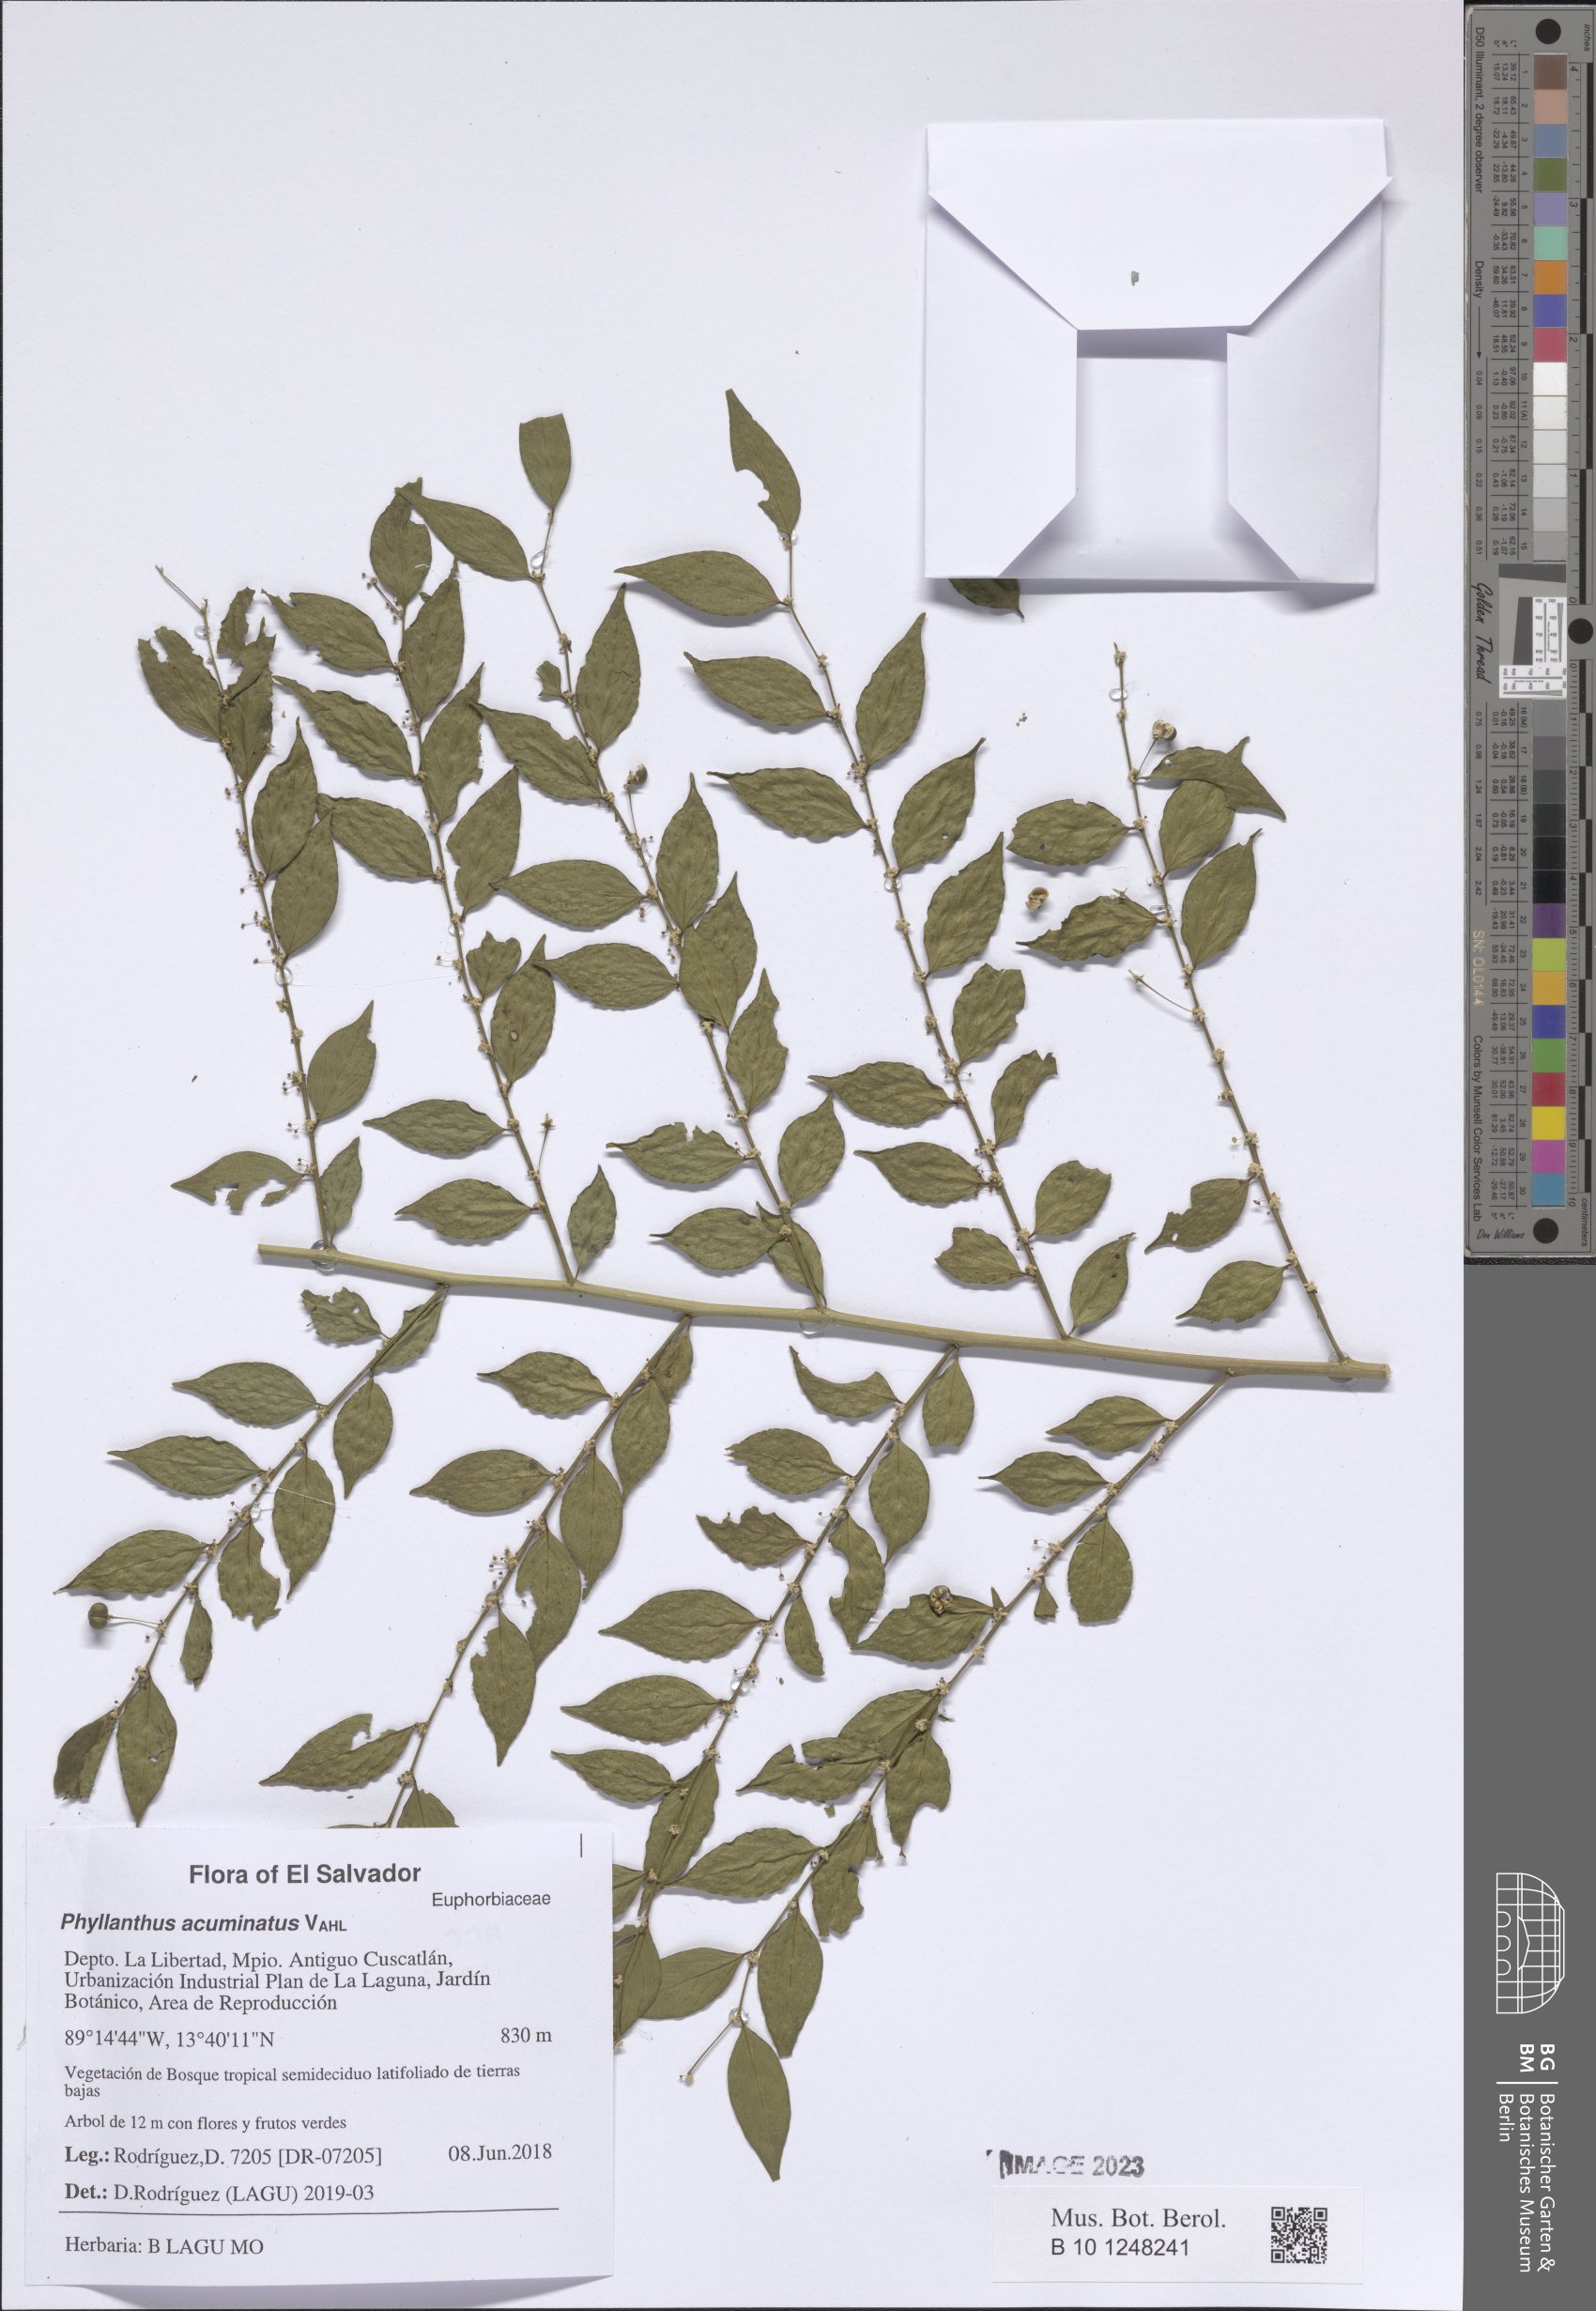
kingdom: Plantae
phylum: Tracheophyta
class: Magnoliopsida
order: Malpighiales
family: Phyllanthaceae
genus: Phyllanthus
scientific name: Phyllanthus acuminatus
